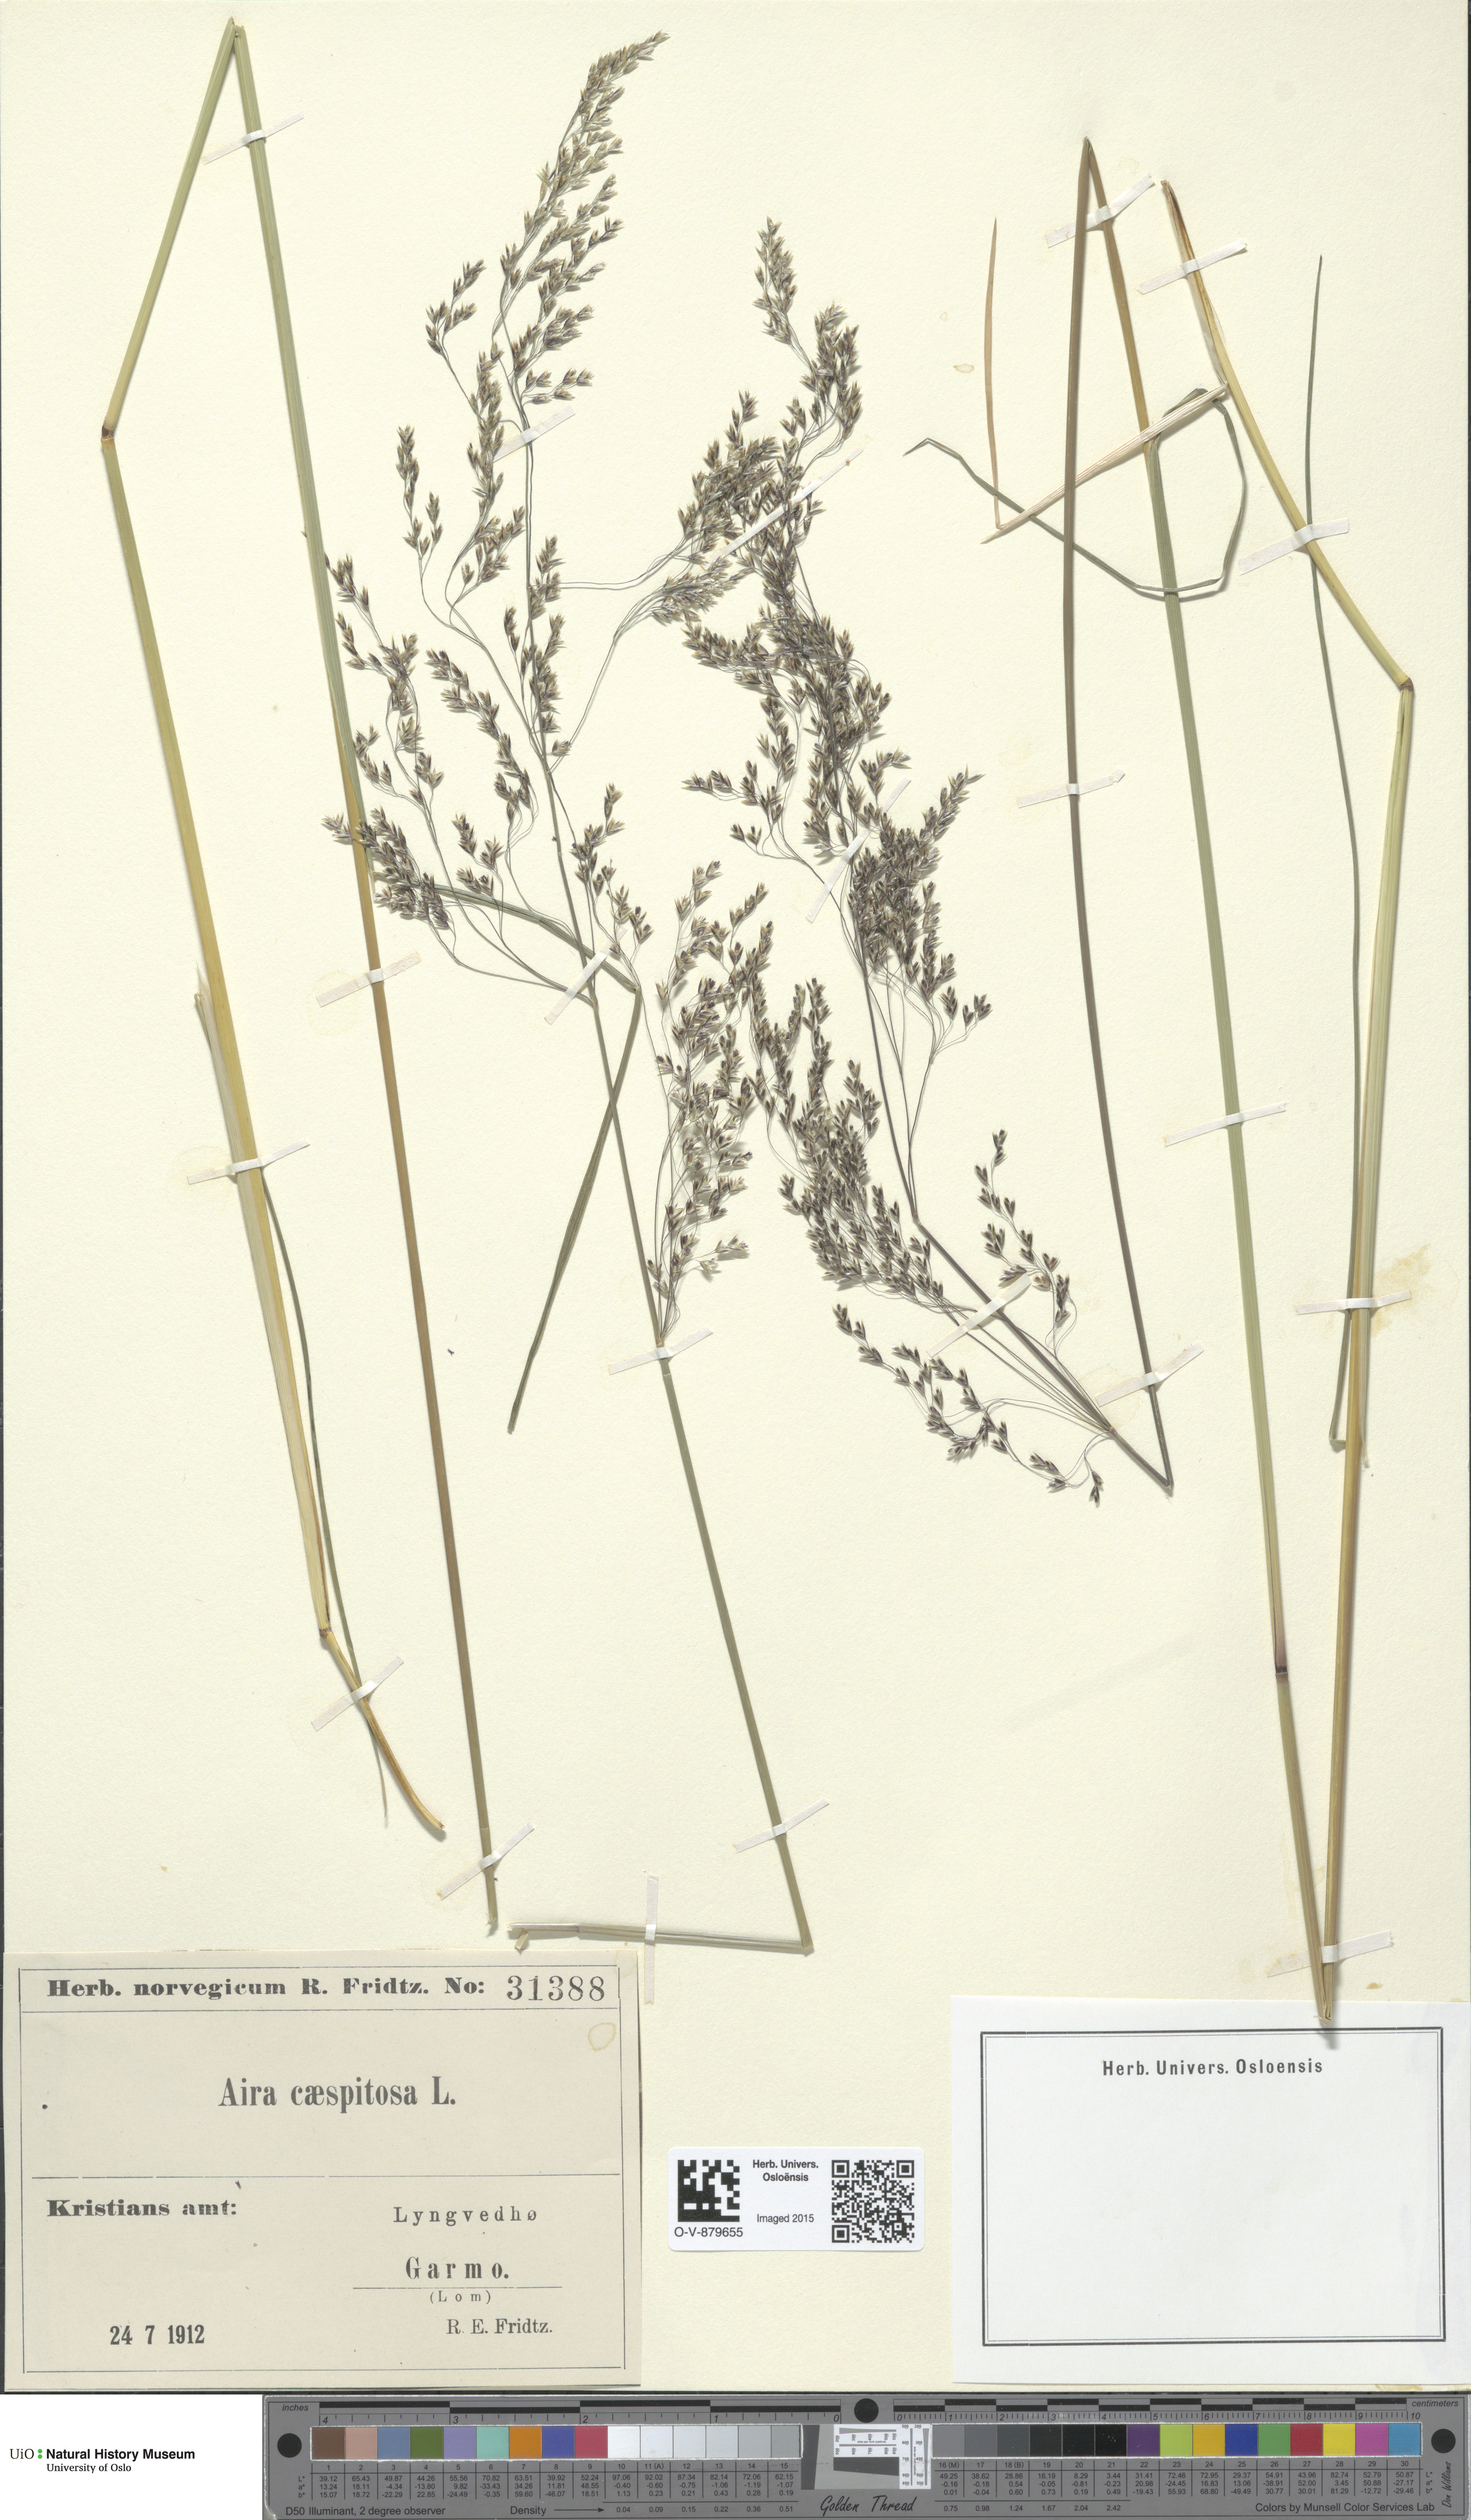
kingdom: Plantae
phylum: Tracheophyta
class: Liliopsida
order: Poales
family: Poaceae
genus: Deschampsia
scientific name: Deschampsia cespitosa
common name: Tufted hair-grass
